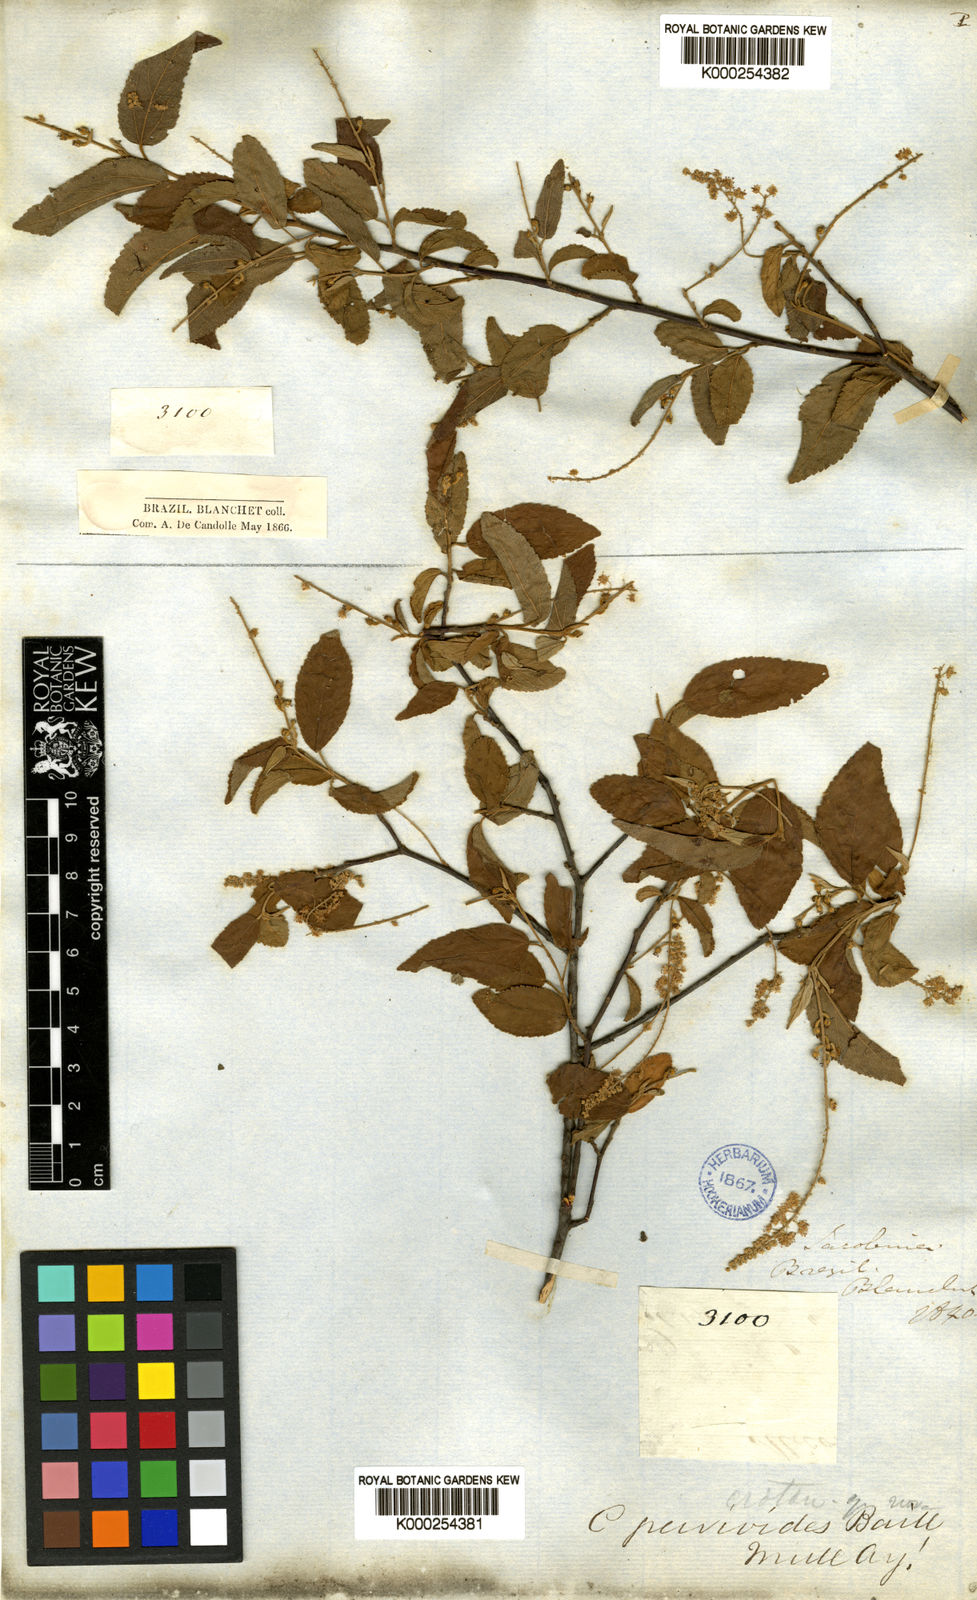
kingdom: Plantae
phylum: Tracheophyta
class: Magnoliopsida
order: Malpighiales
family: Euphorbiaceae
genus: Croton
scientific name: Croton grewioides
